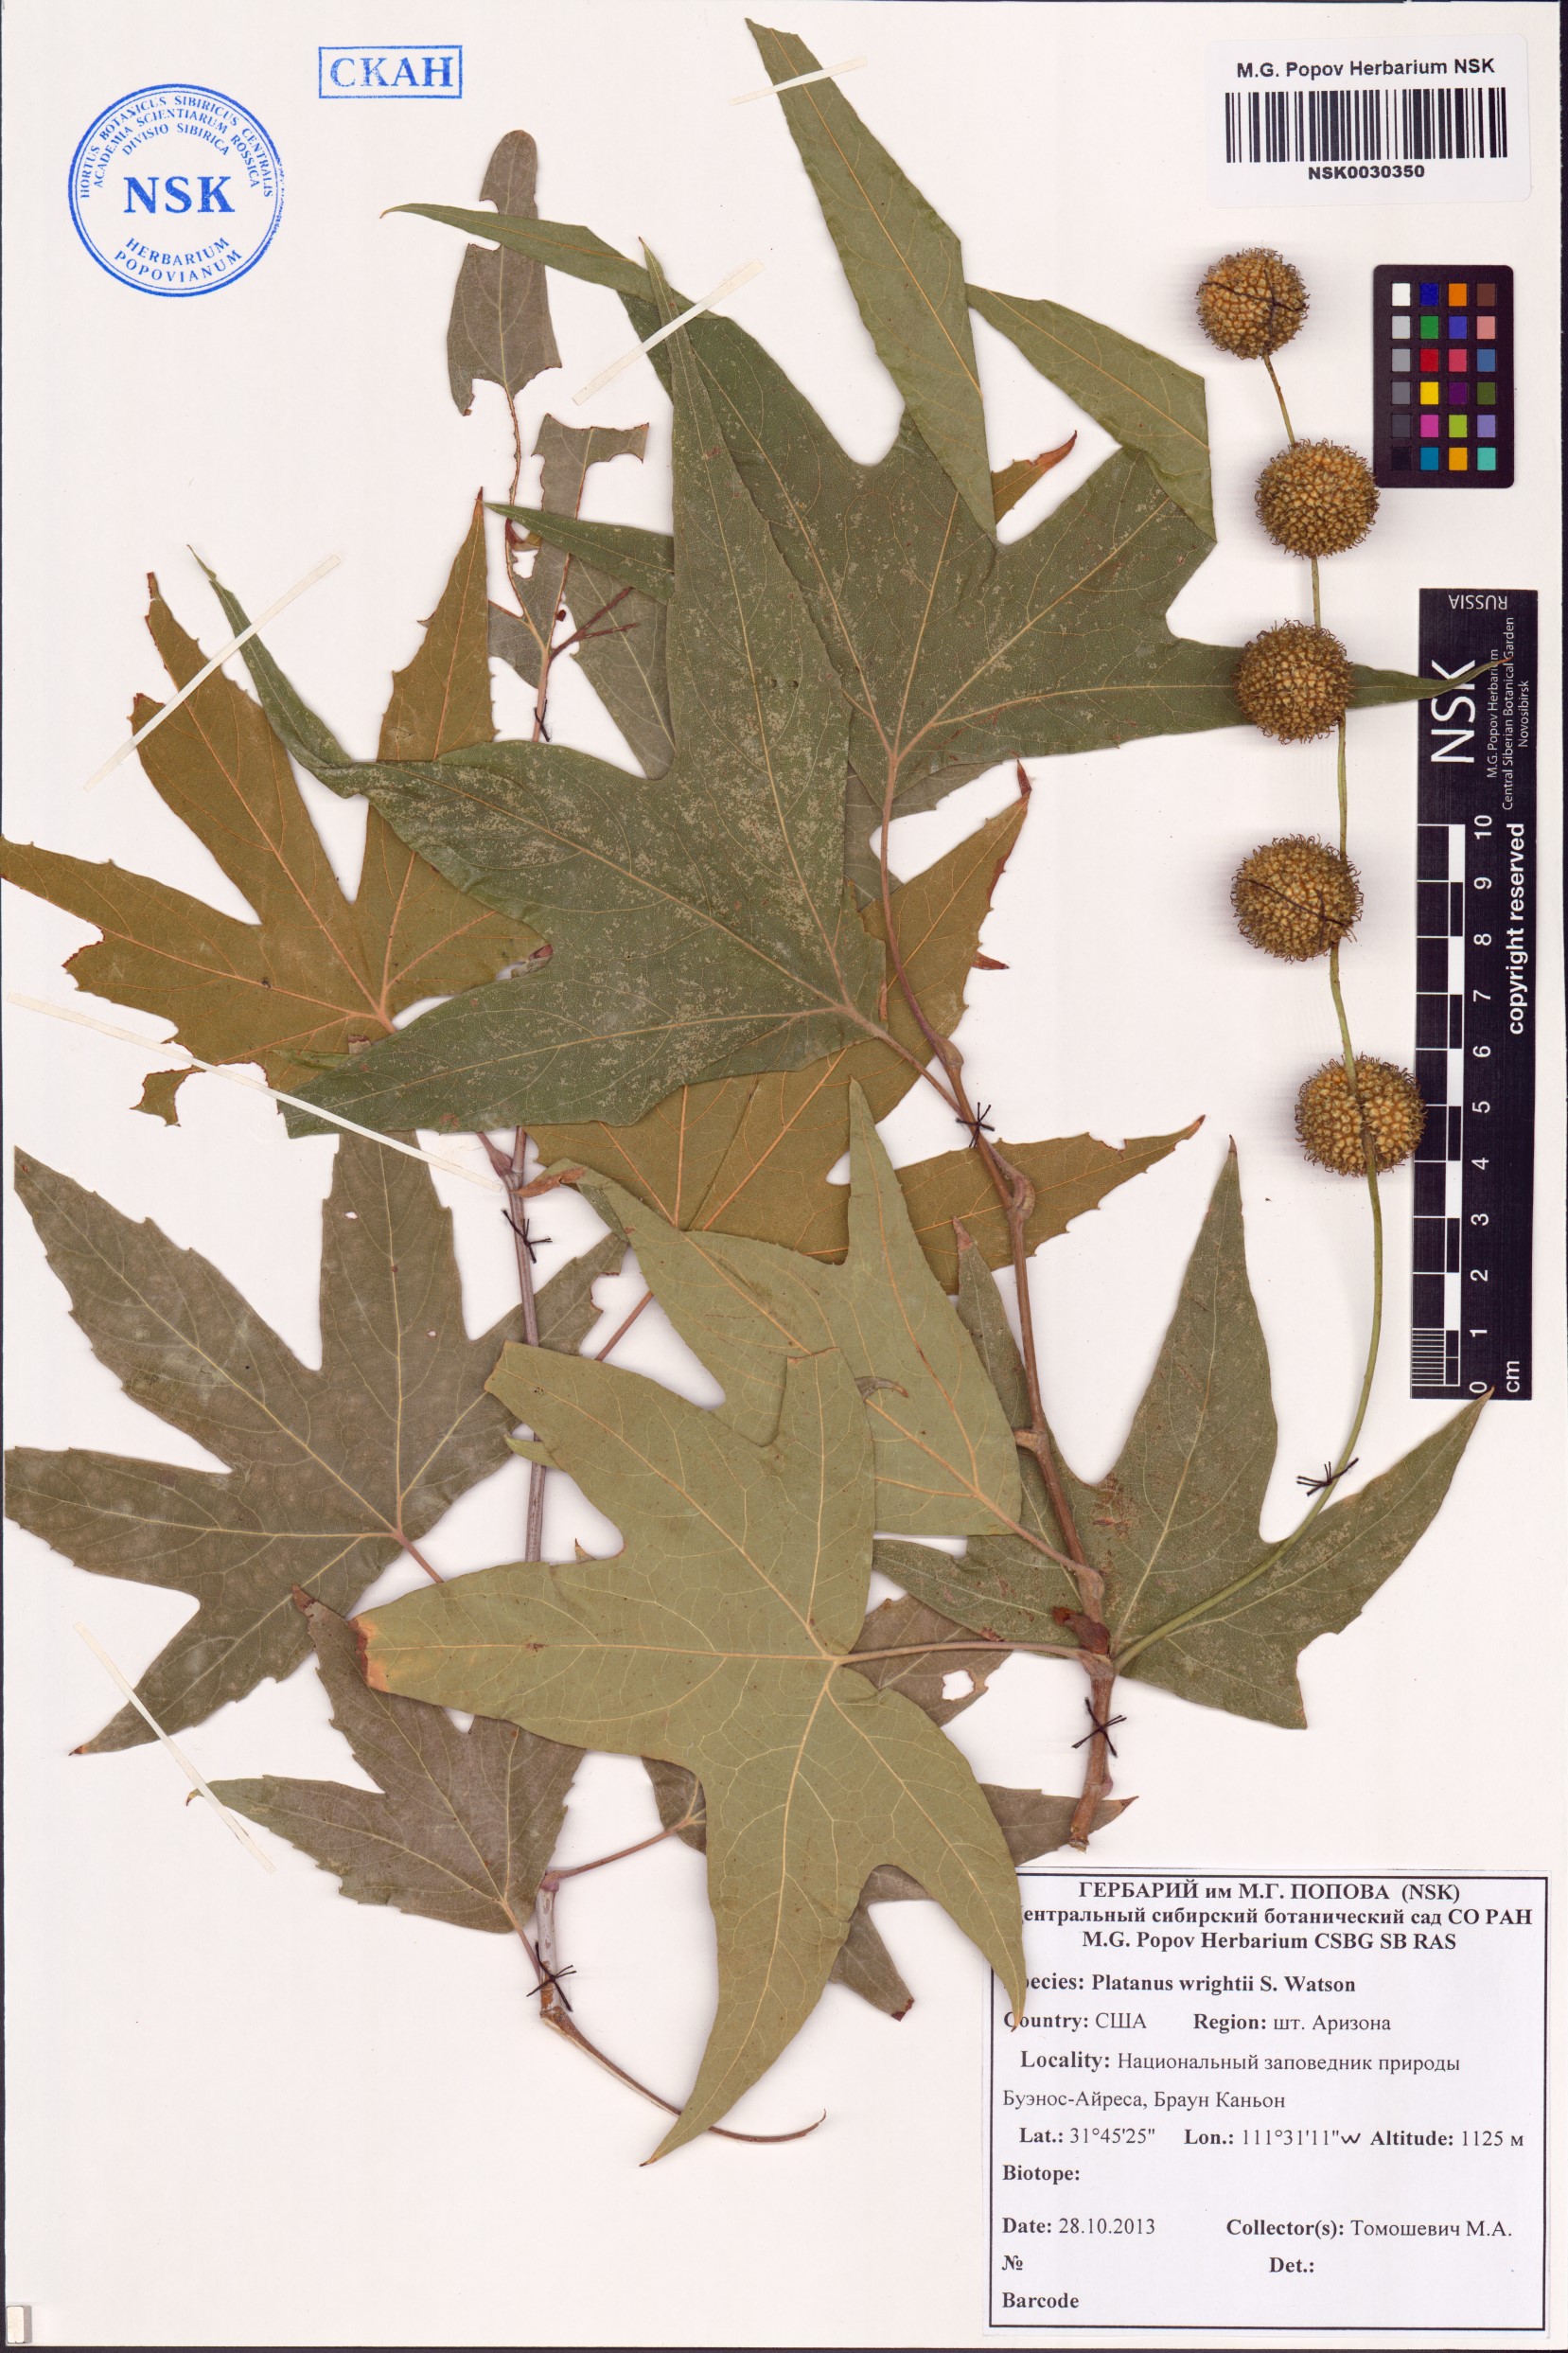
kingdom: Plantae
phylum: Tracheophyta
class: Magnoliopsida
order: Proteales
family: Platanaceae
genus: Platanus
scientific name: Platanus wrightii
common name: Arizona sycamore
